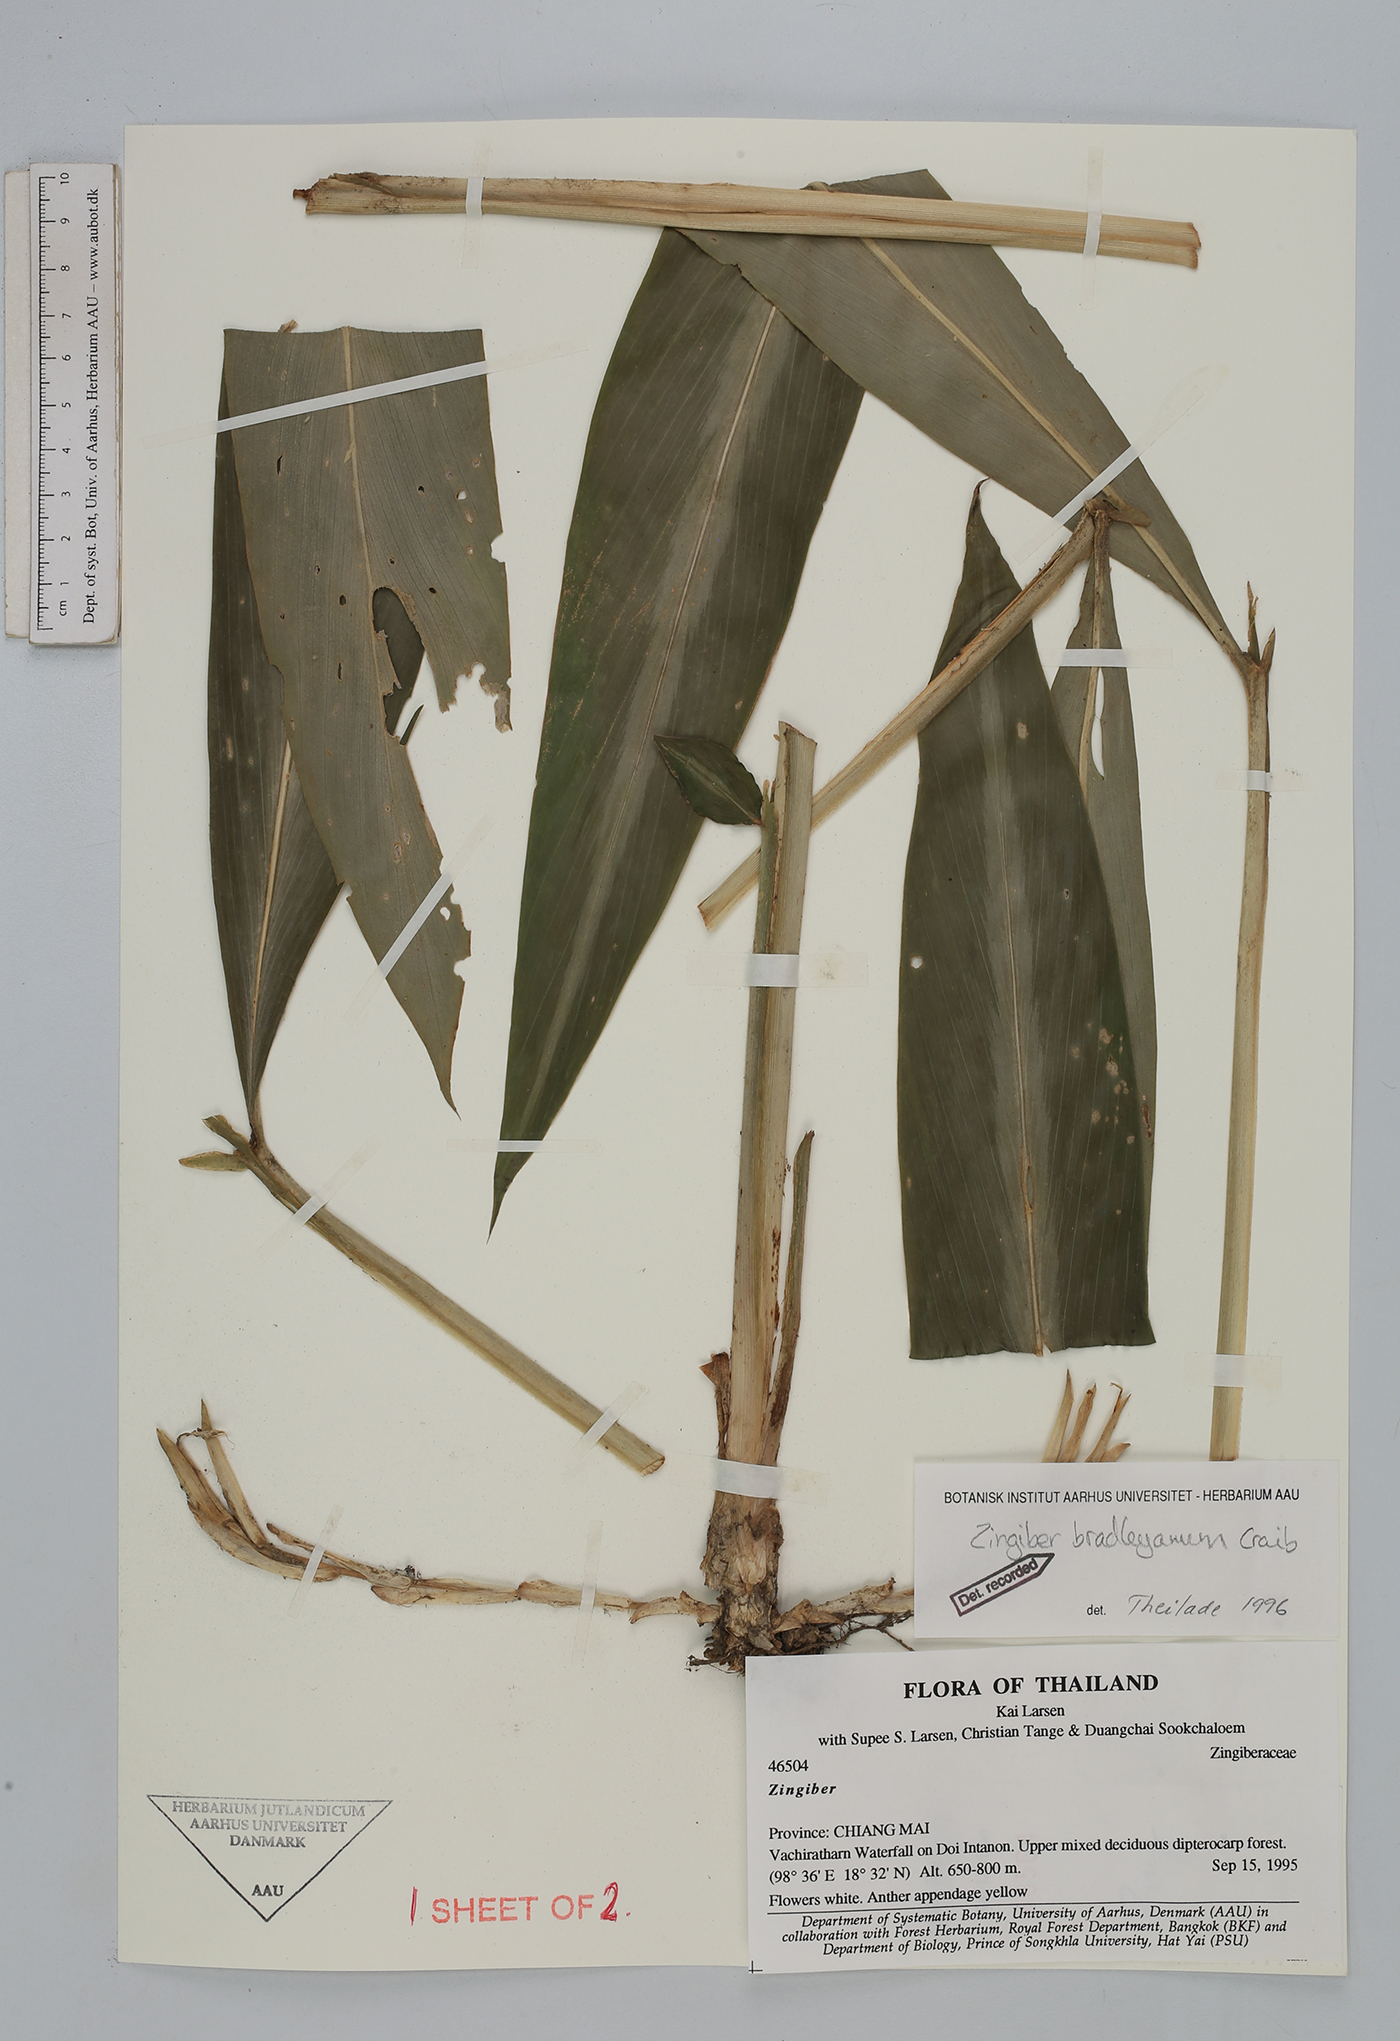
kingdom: Plantae
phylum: Tracheophyta
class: Liliopsida
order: Zingiberales
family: Zingiberaceae
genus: Zingiber
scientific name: Zingiber bradleyanum
